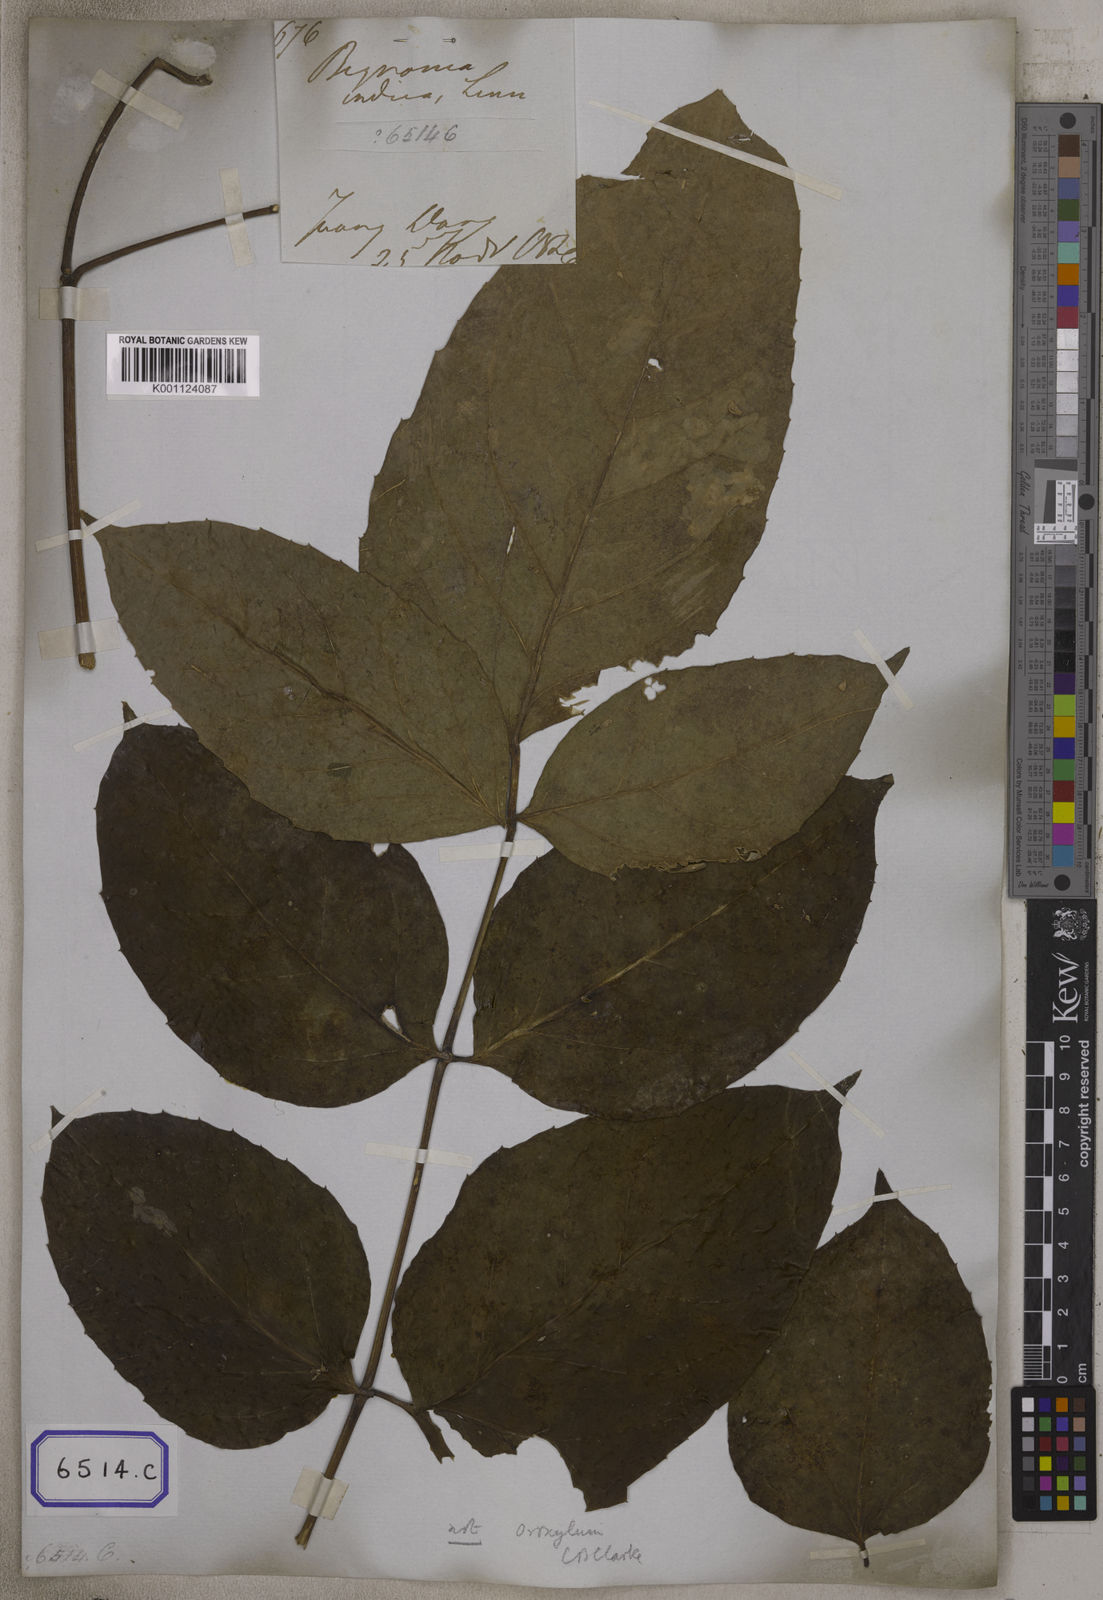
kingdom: Plantae
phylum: Tracheophyta
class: Magnoliopsida
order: Lamiales
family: Bignoniaceae
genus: Oroxylum
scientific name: Oroxylum indicum
